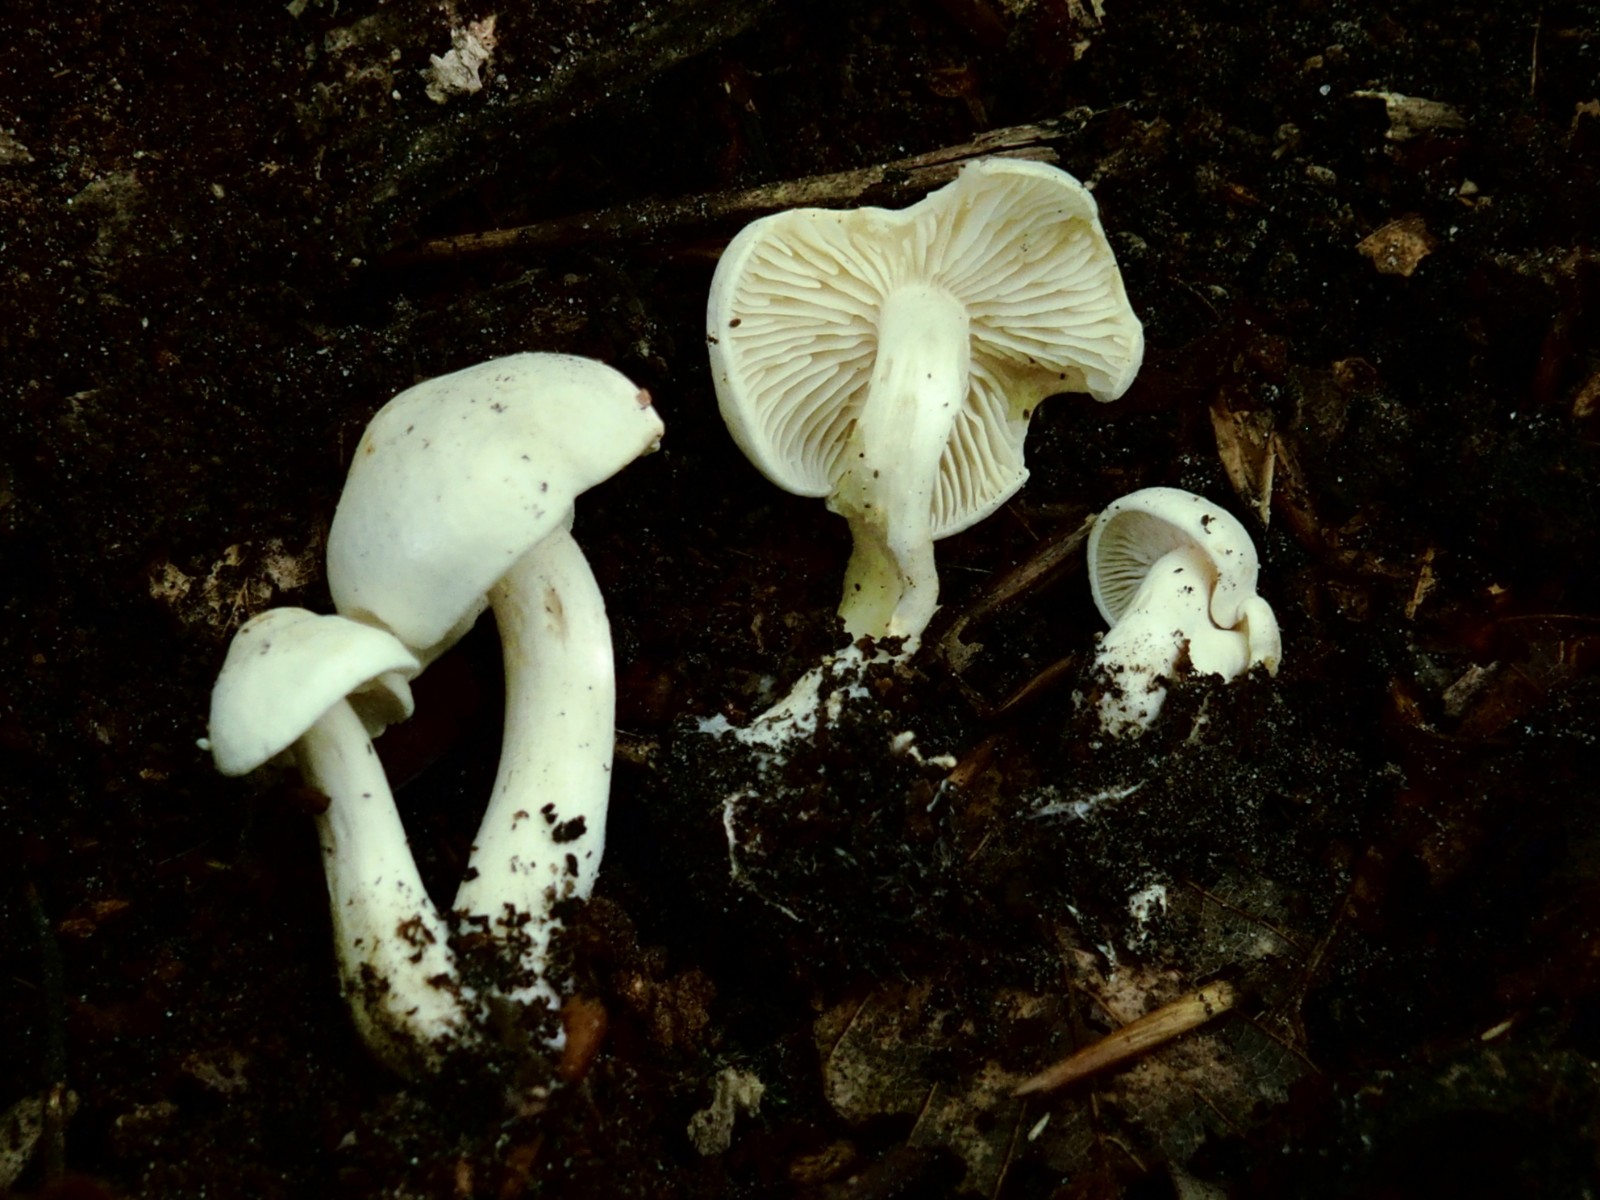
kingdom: Fungi
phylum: Basidiomycota
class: Agaricomycetes
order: Agaricales
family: Tricholomataceae
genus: Tricholoma
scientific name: Tricholoma album
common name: honning-ridderhat
